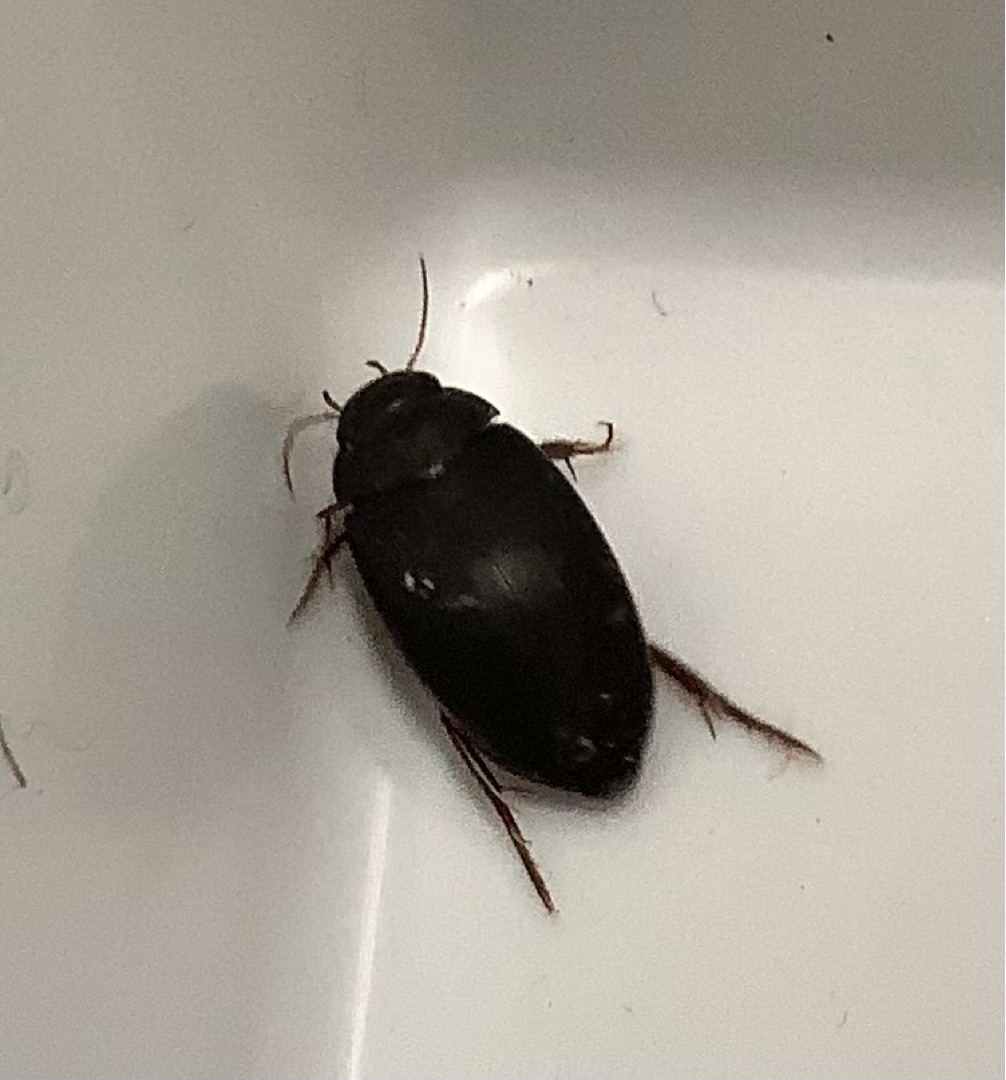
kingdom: Animalia
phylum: Arthropoda
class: Insecta
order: Coleoptera
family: Dytiscidae
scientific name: Dytiscidae
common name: Vandkalve
